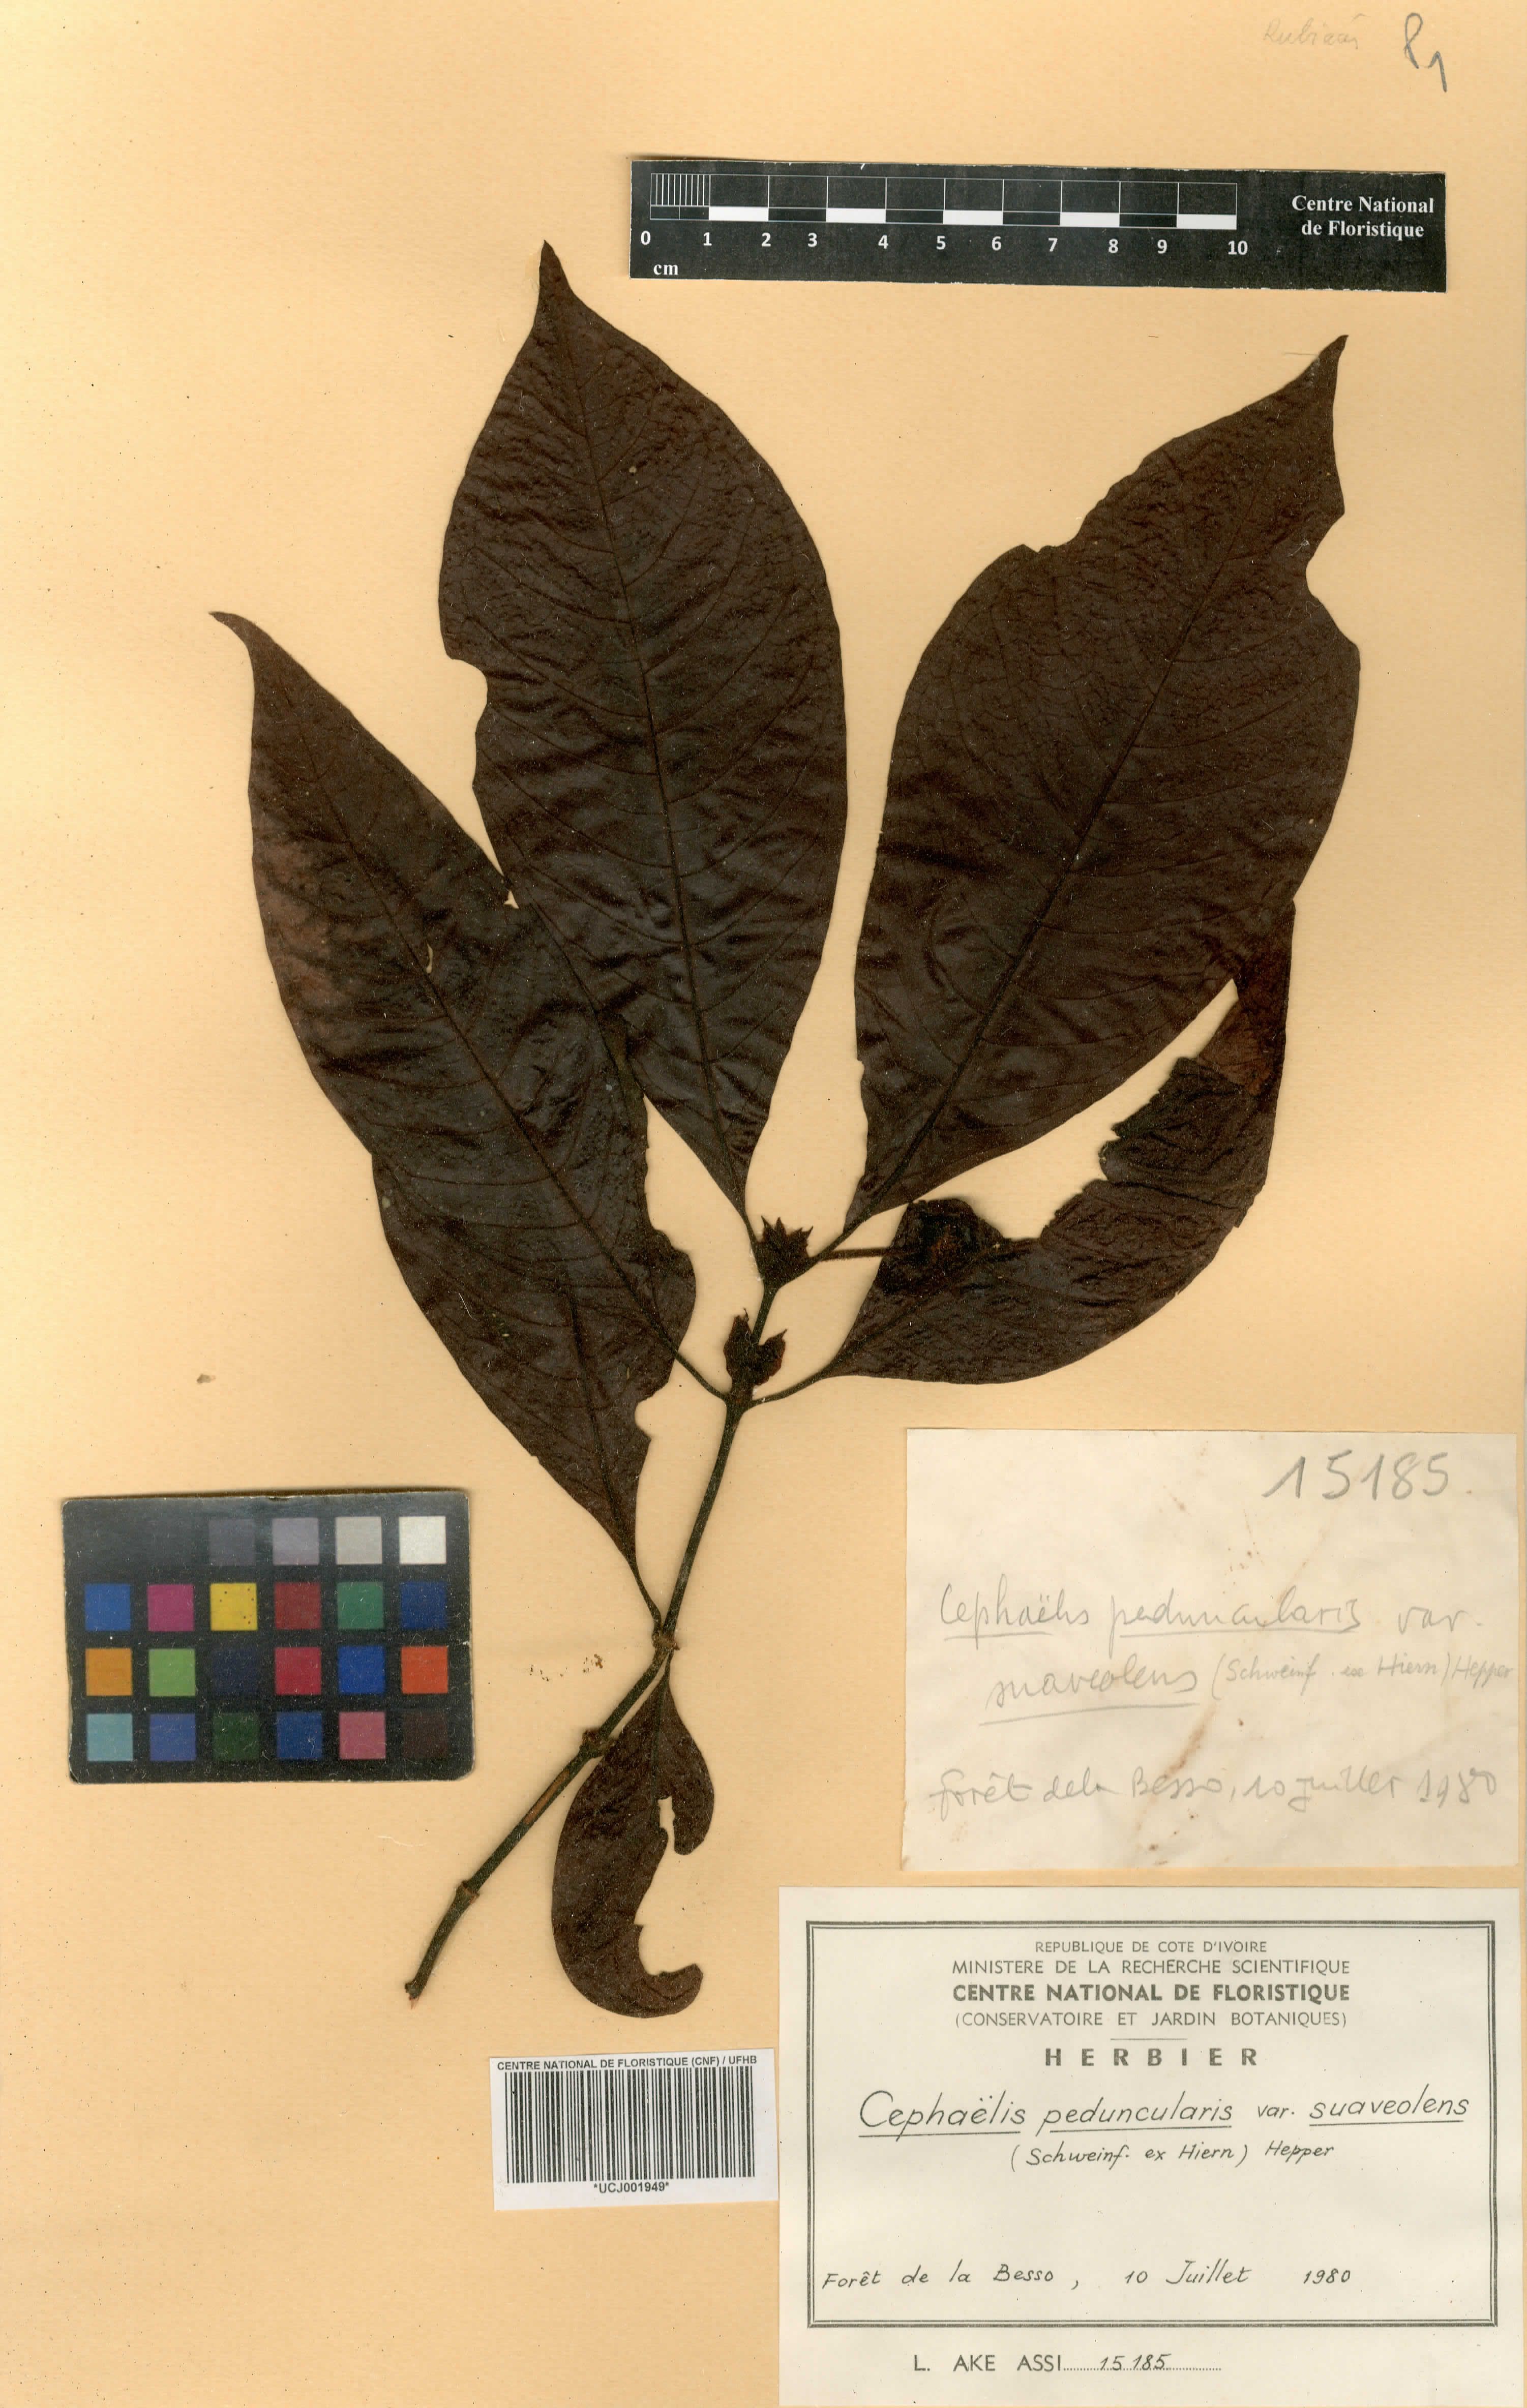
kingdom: Plantae
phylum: Tracheophyta
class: Magnoliopsida
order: Gentianales
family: Rubiaceae
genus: Psychotria
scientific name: Psychotria peduncularis
